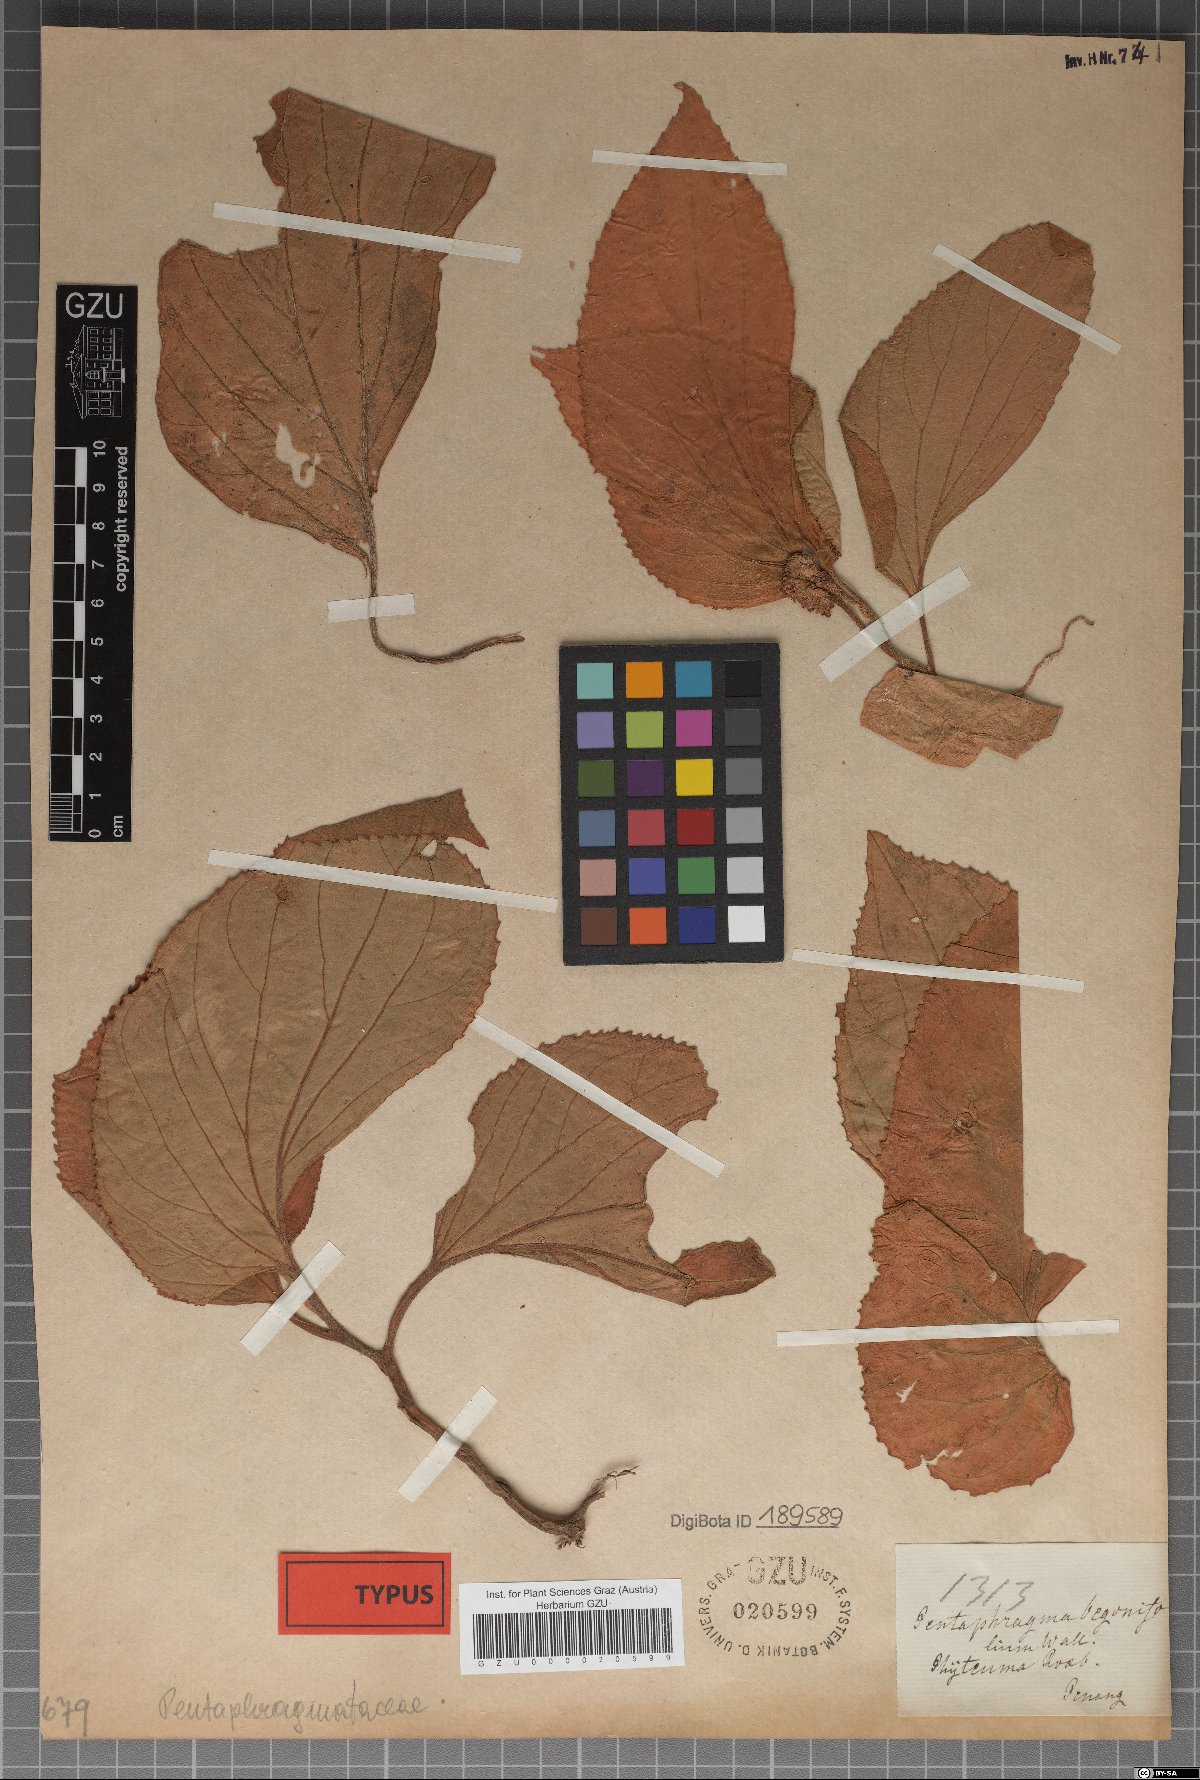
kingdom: Plantae
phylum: Tracheophyta
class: Magnoliopsida
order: Asterales
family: Pentaphragmataceae
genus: Pentaphragma
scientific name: Pentaphragma begoniifolium
